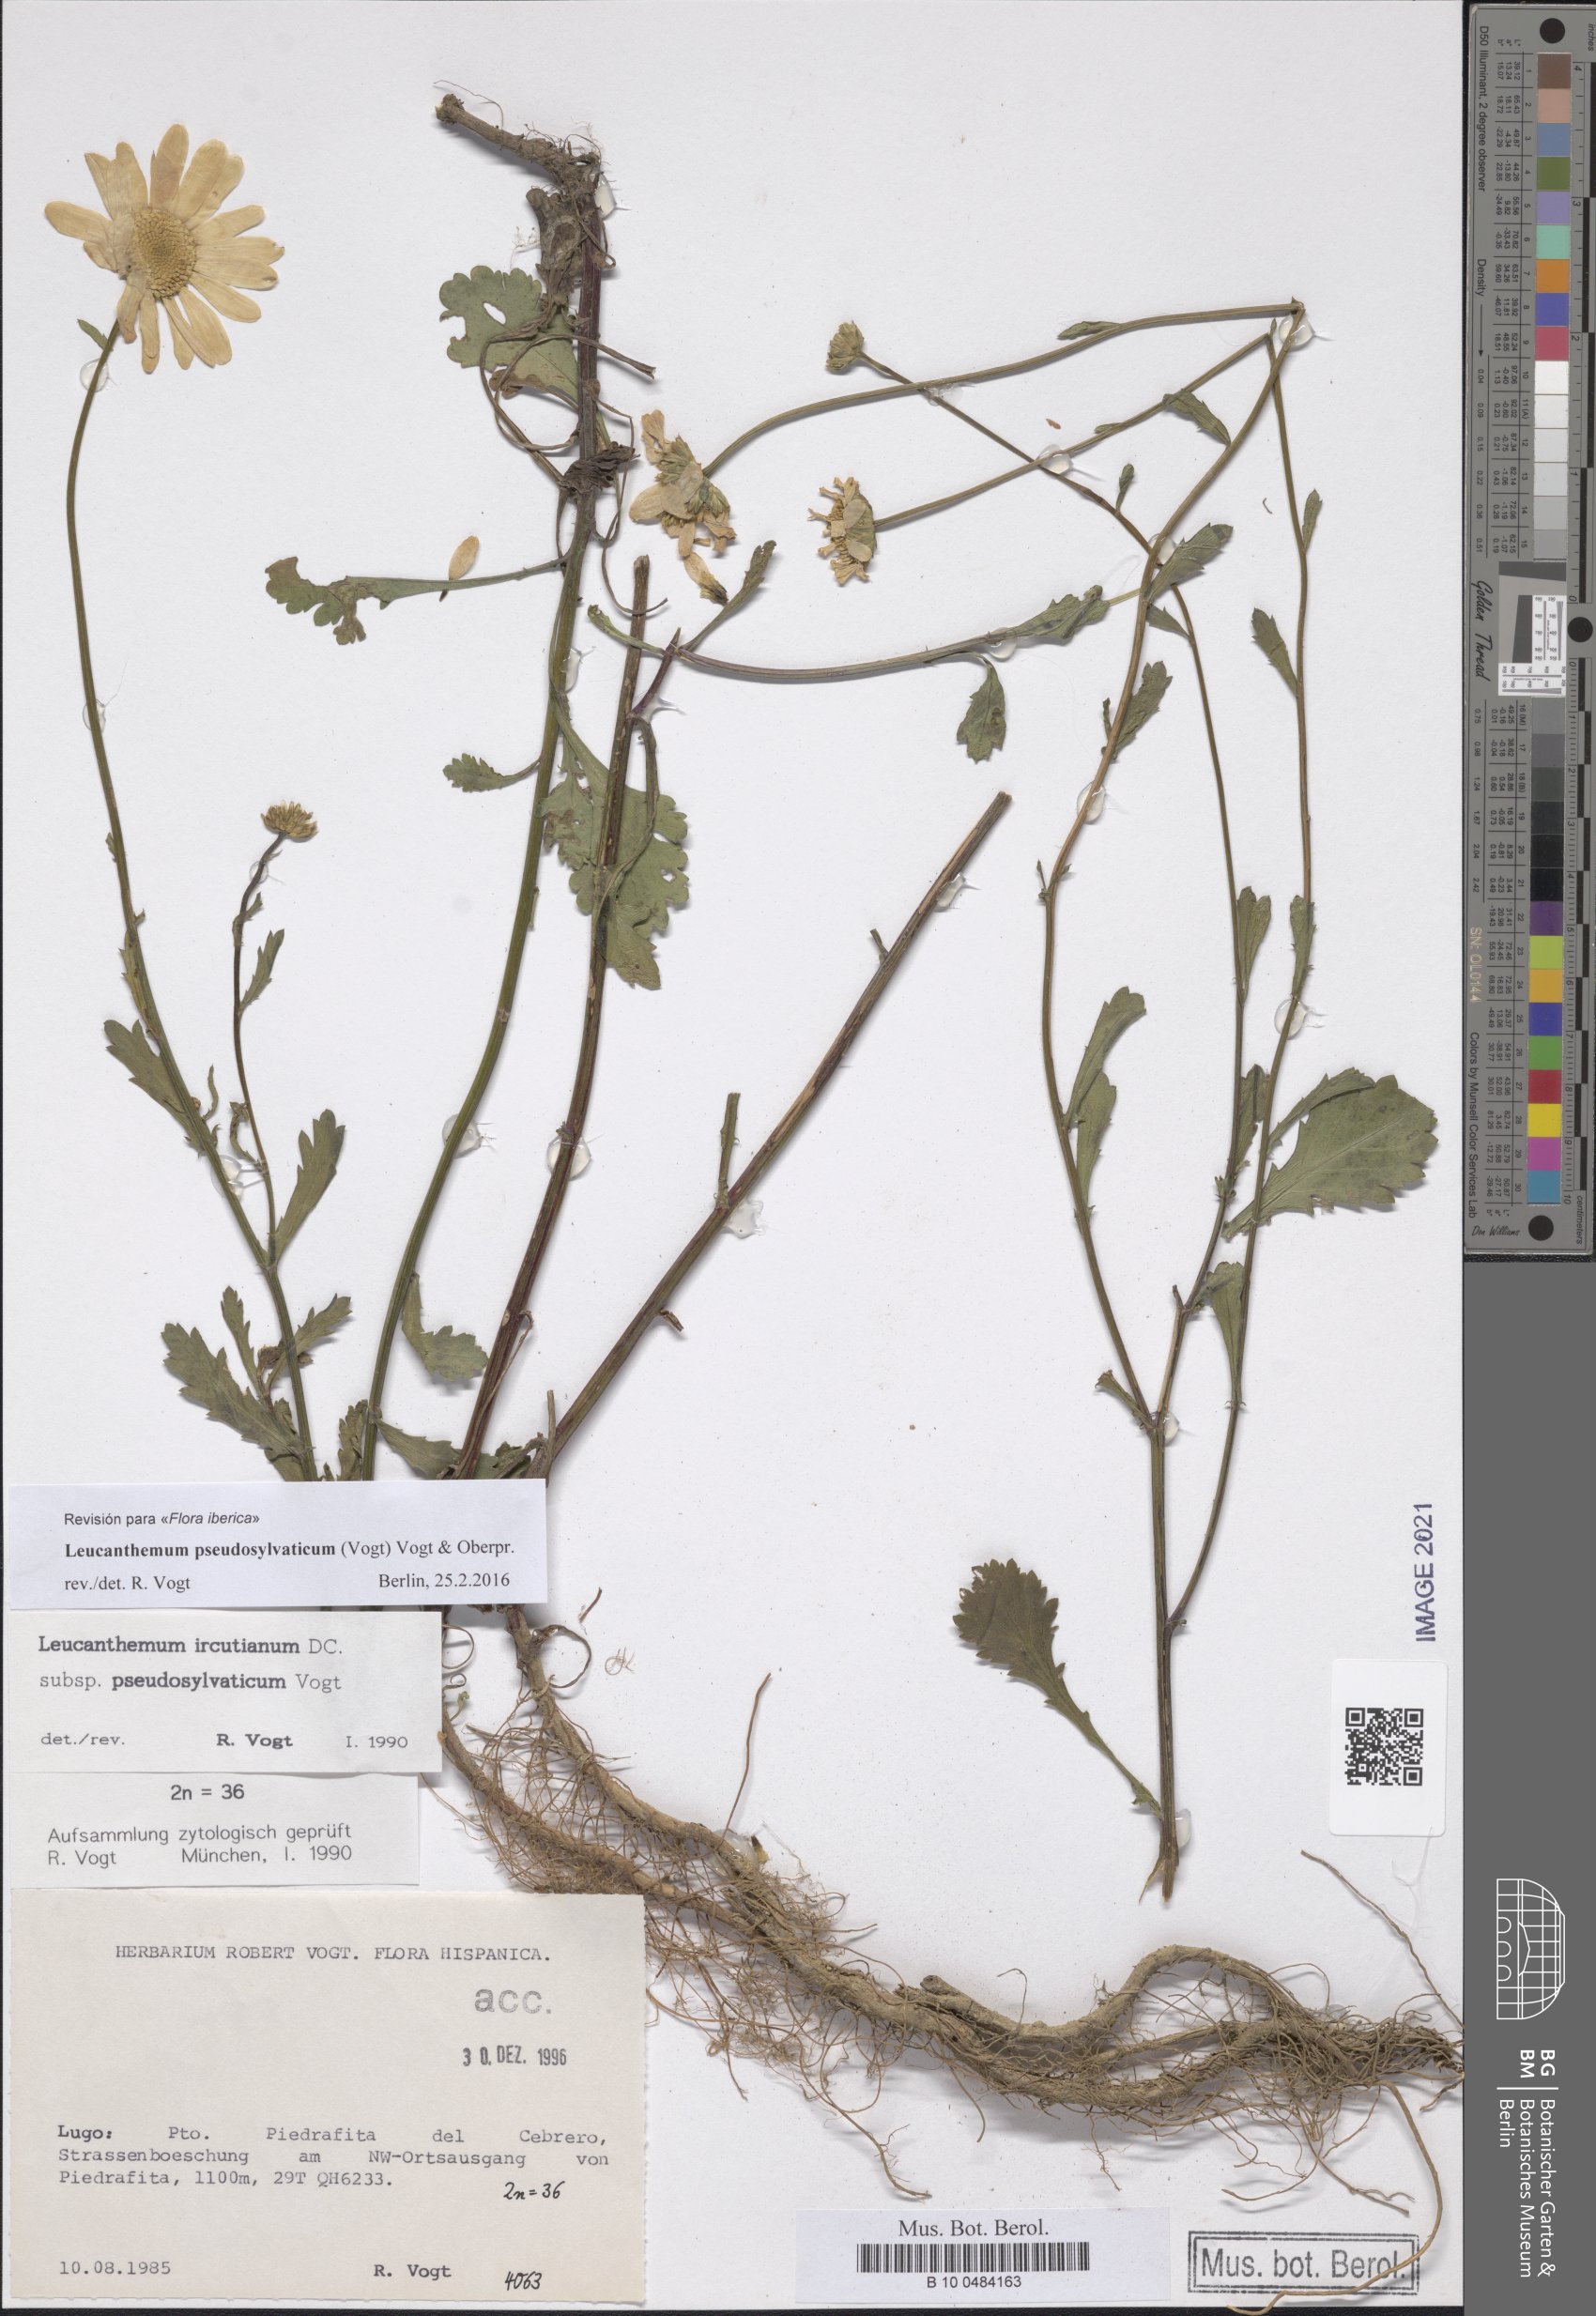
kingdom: Plantae
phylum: Tracheophyta
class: Magnoliopsida
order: Asterales
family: Asteraceae
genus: Leucanthemum
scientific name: Leucanthemum pseudosylvaticum
